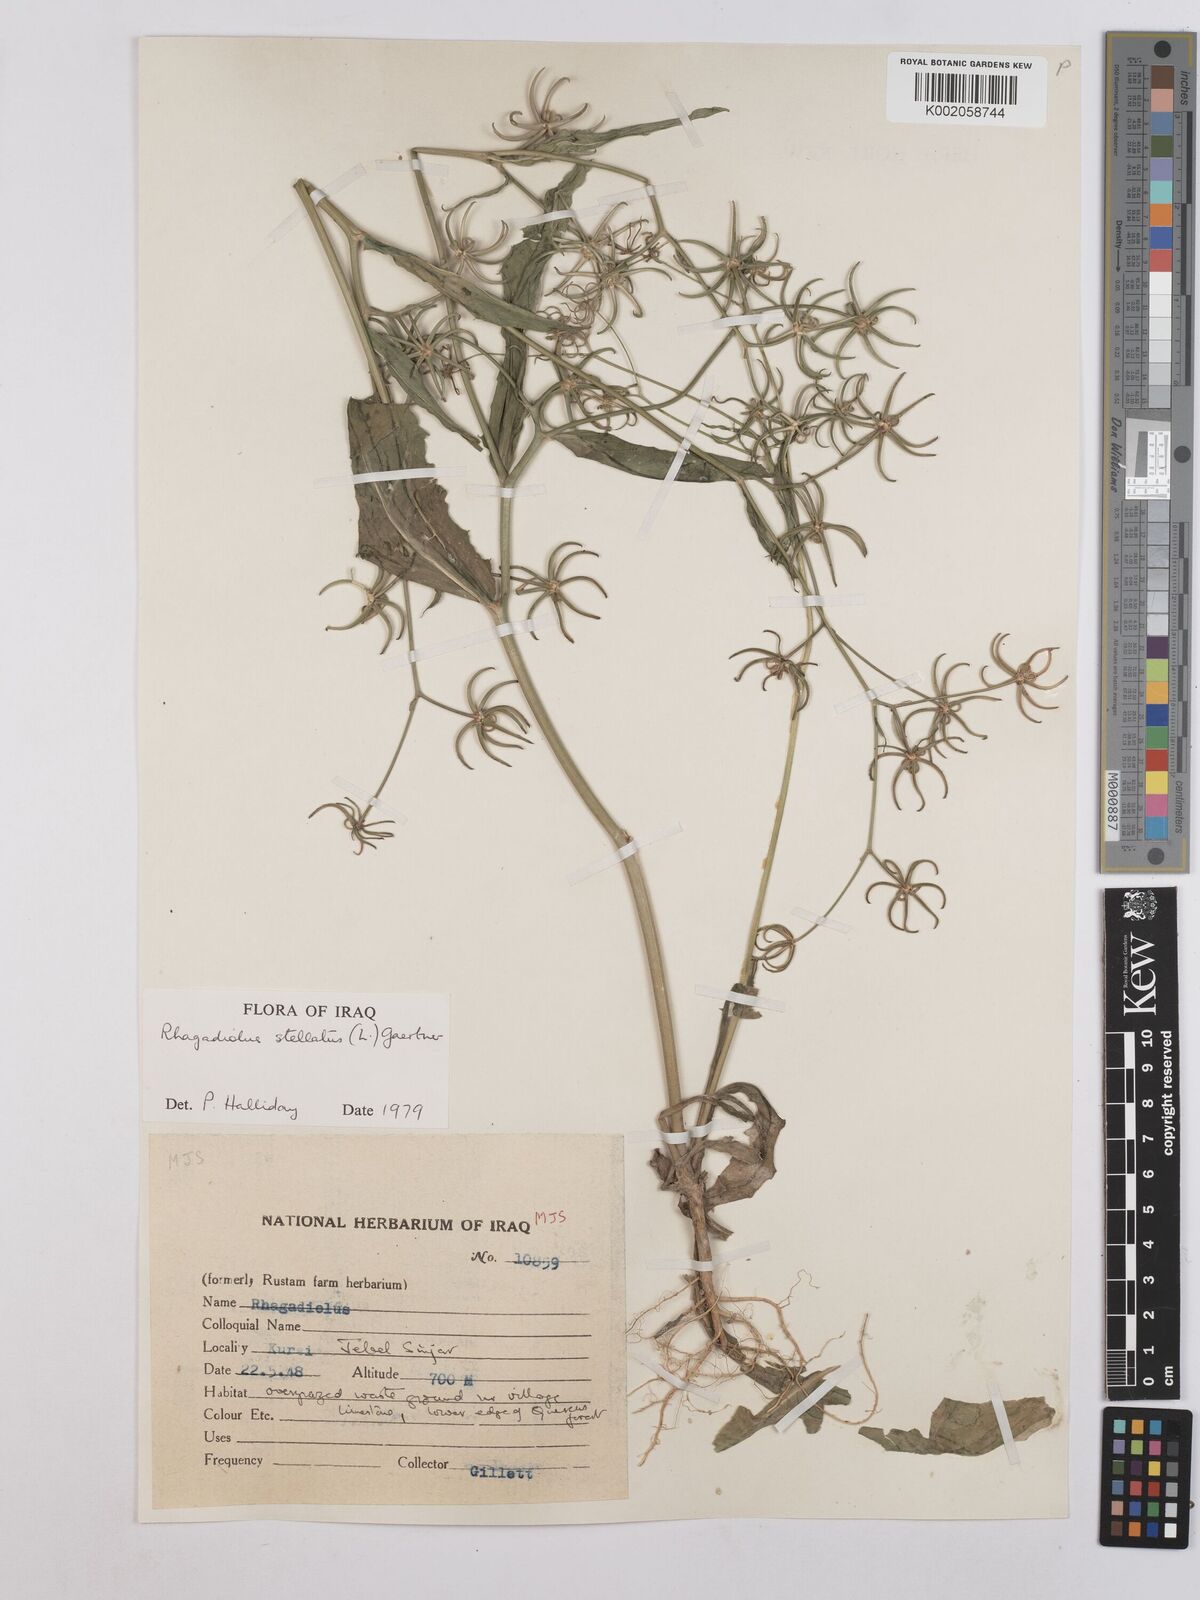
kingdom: Plantae
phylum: Tracheophyta
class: Magnoliopsida
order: Asterales
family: Asteraceae
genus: Rhagadiolus
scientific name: Rhagadiolus stellatus
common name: Star hawkbit
